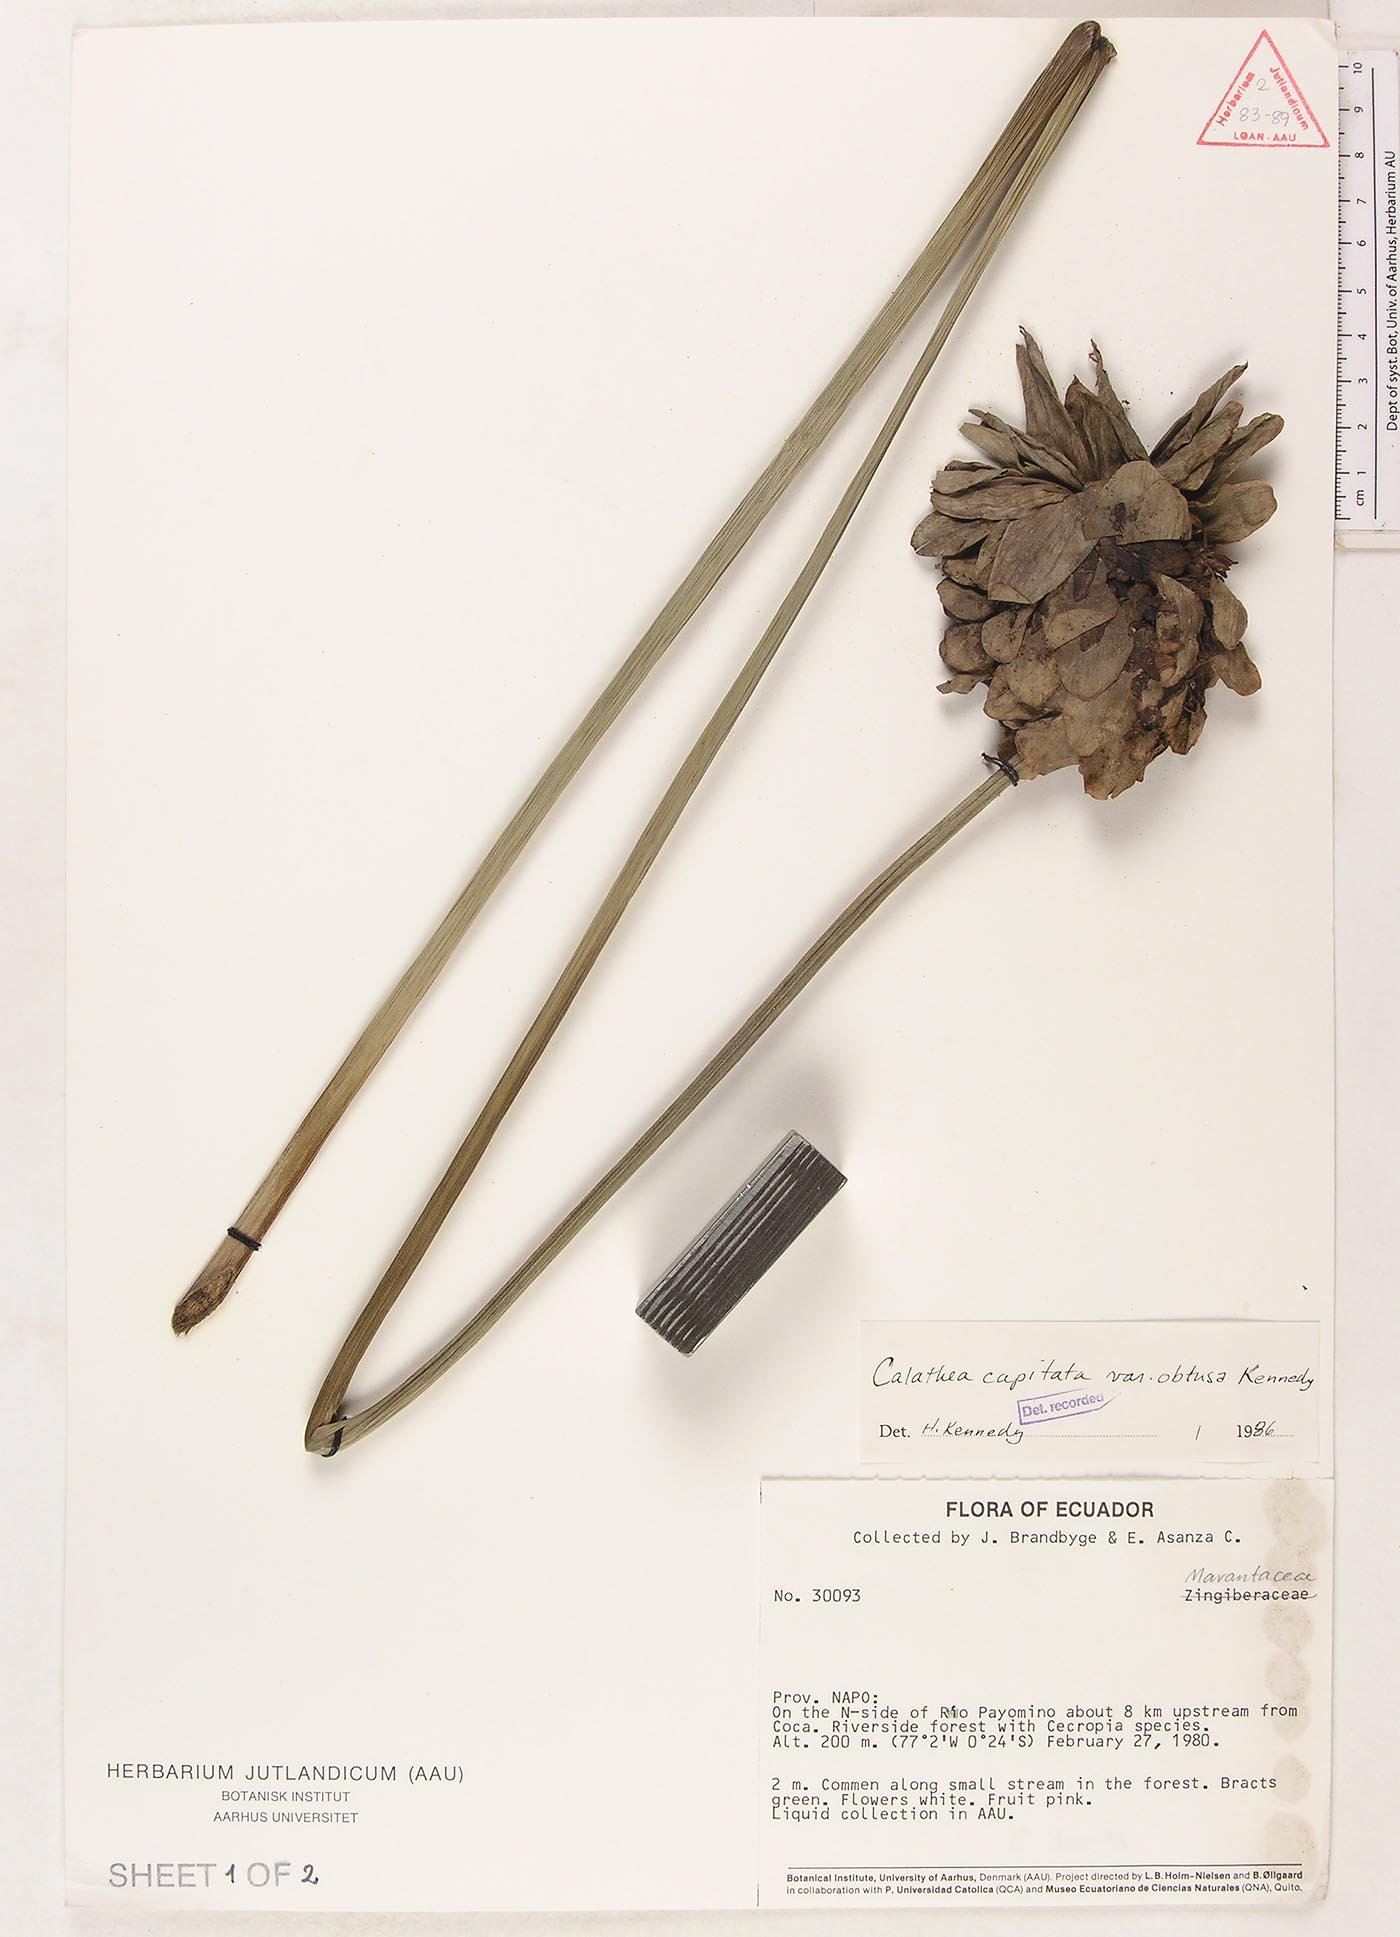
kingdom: Plantae
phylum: Tracheophyta
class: Liliopsida
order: Zingiberales
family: Marantaceae
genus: Goeppertia
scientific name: Goeppertia capitata
